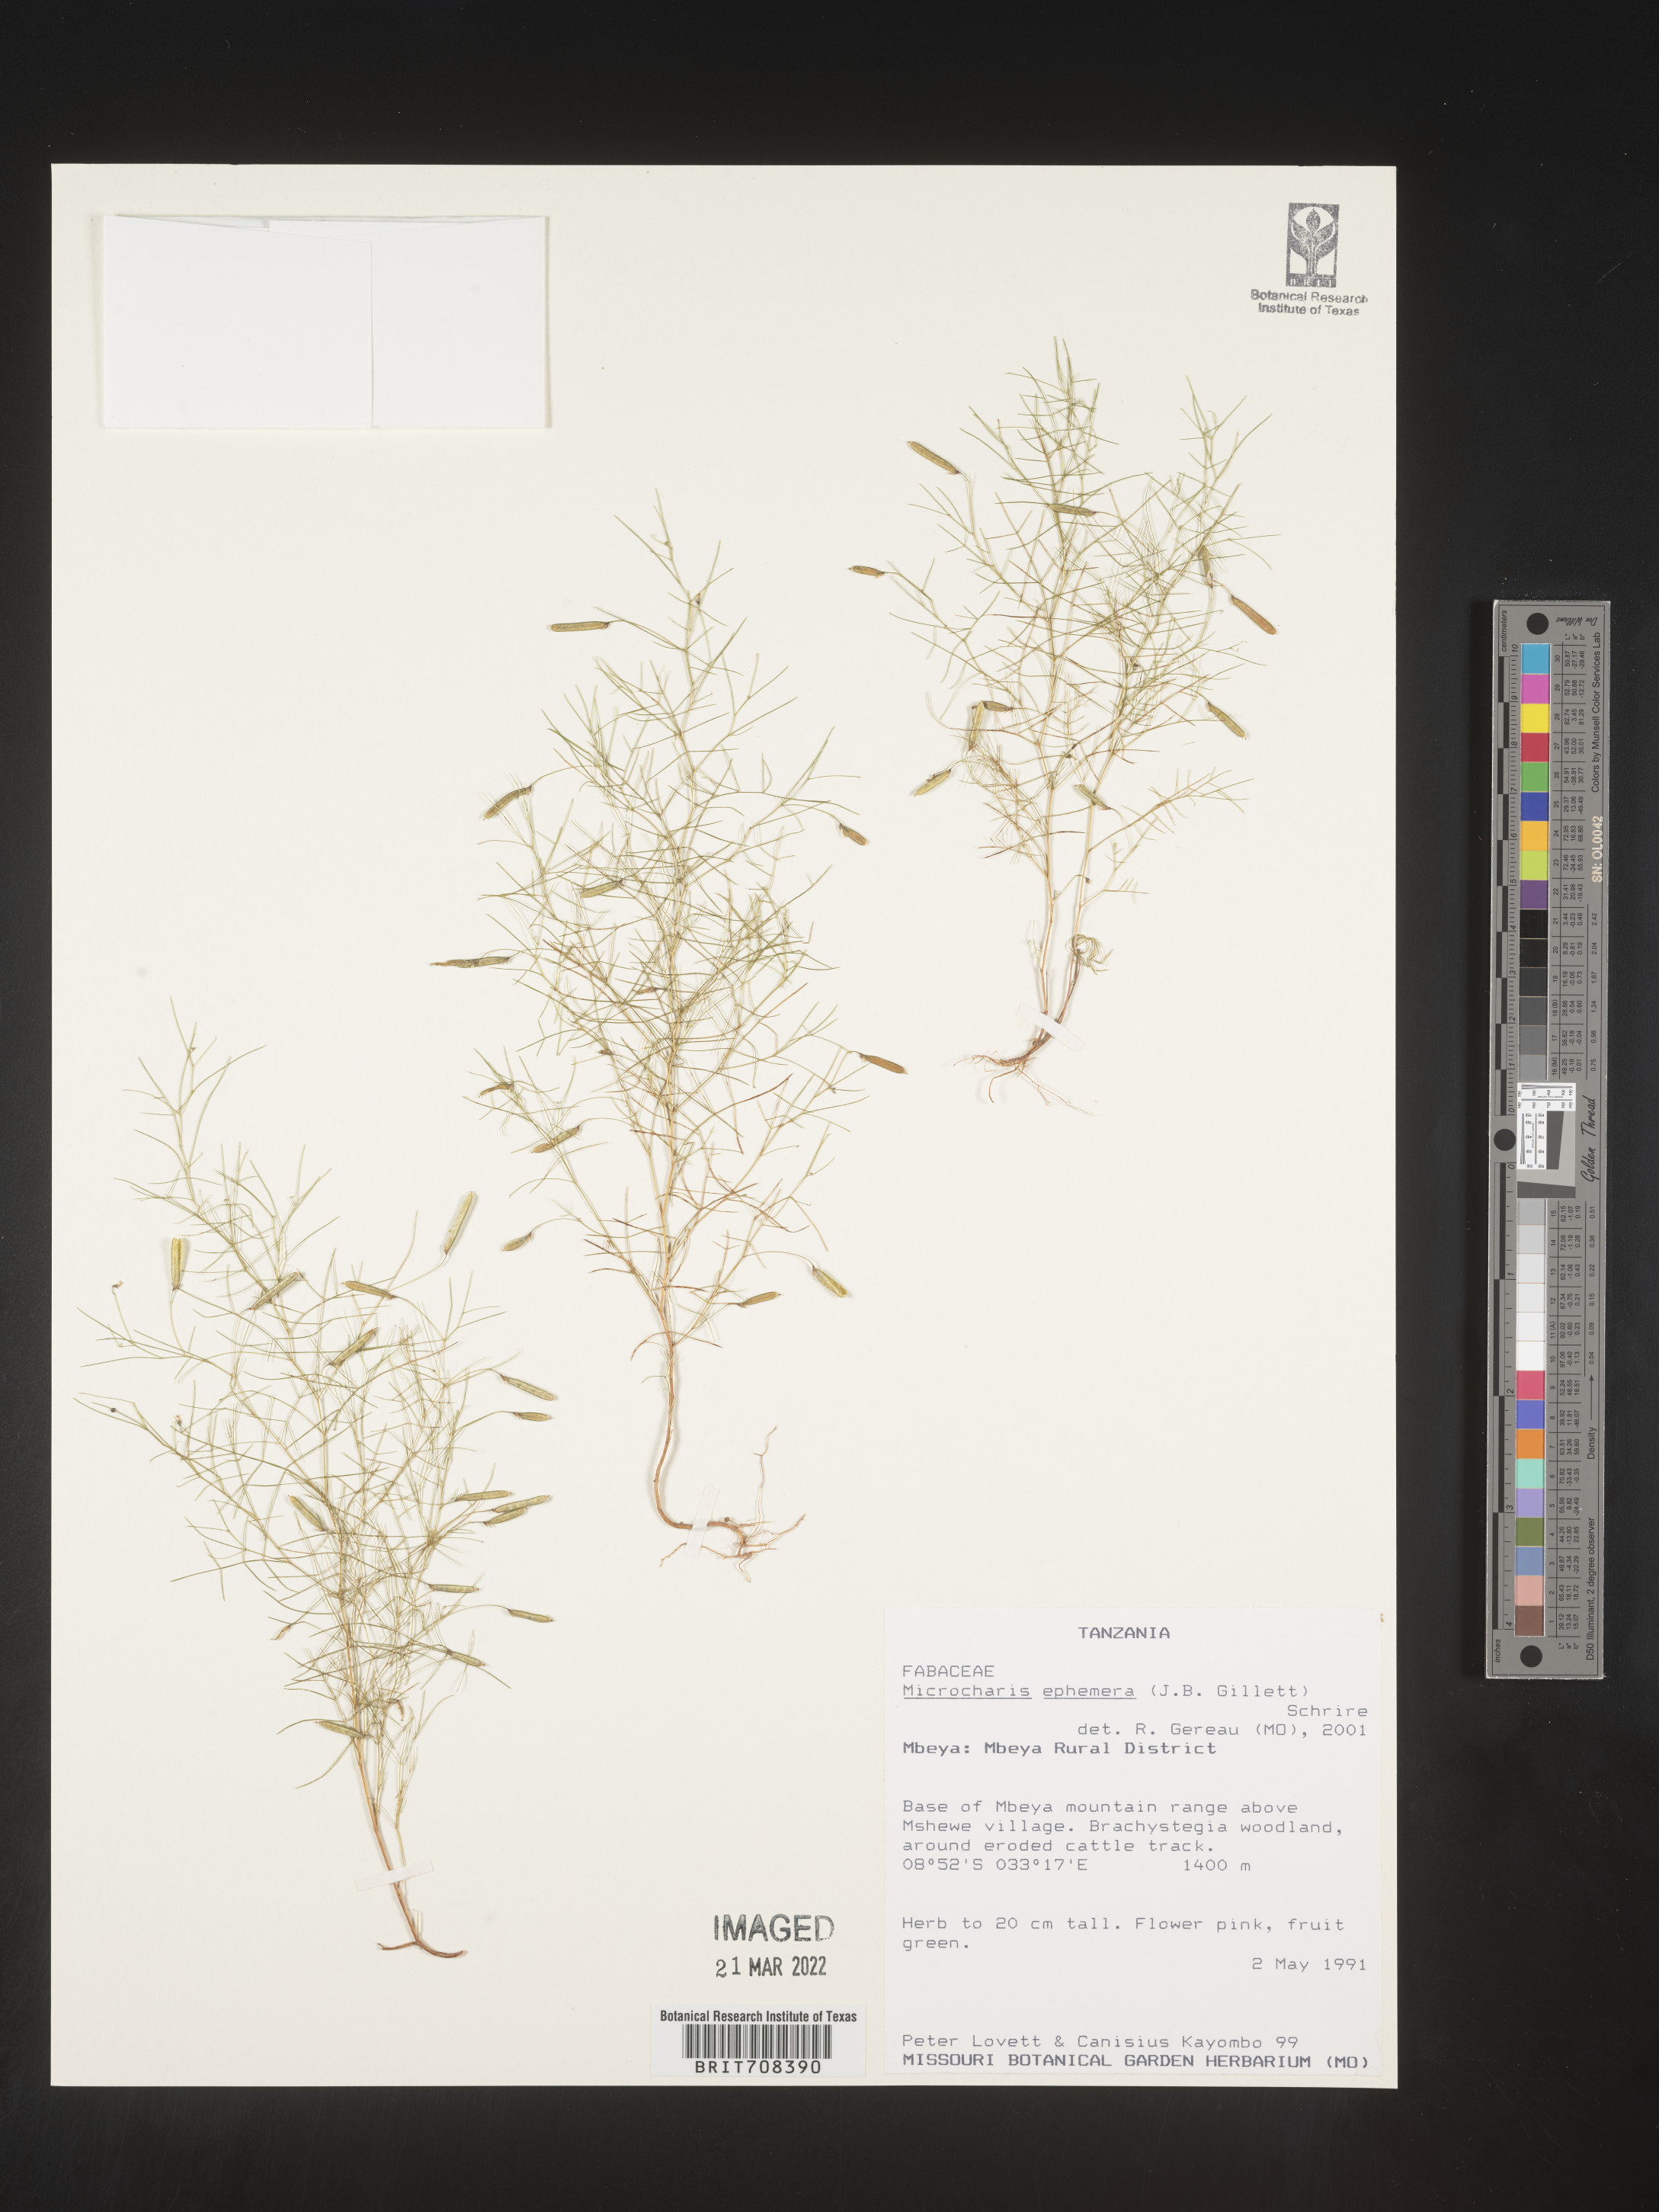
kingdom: Plantae
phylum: Tracheophyta
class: Magnoliopsida
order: Fabales
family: Fabaceae
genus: Microcharis
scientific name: Microcharis
